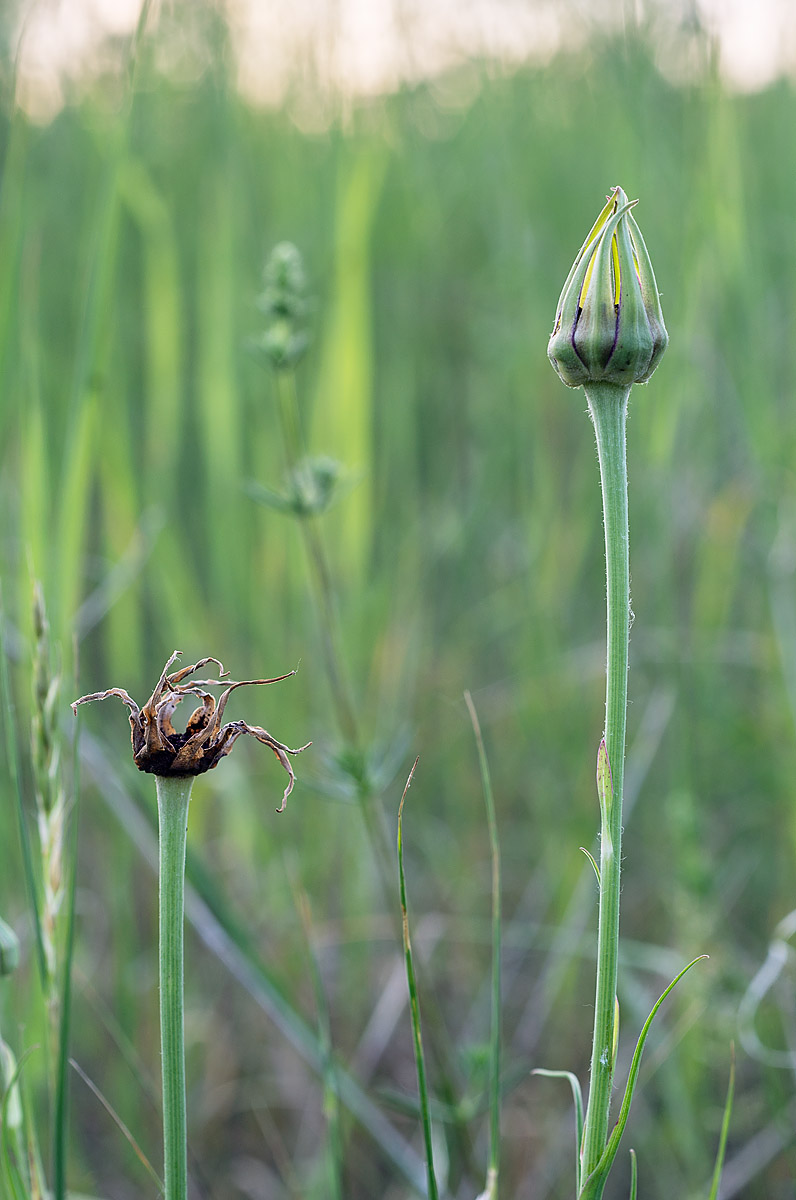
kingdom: Fungi
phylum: Basidiomycota
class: Microbotryomycetes
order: Microbotryales
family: Microbotryaceae
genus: Microbotryum
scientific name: Microbotryum tragopogonis-pratensis
